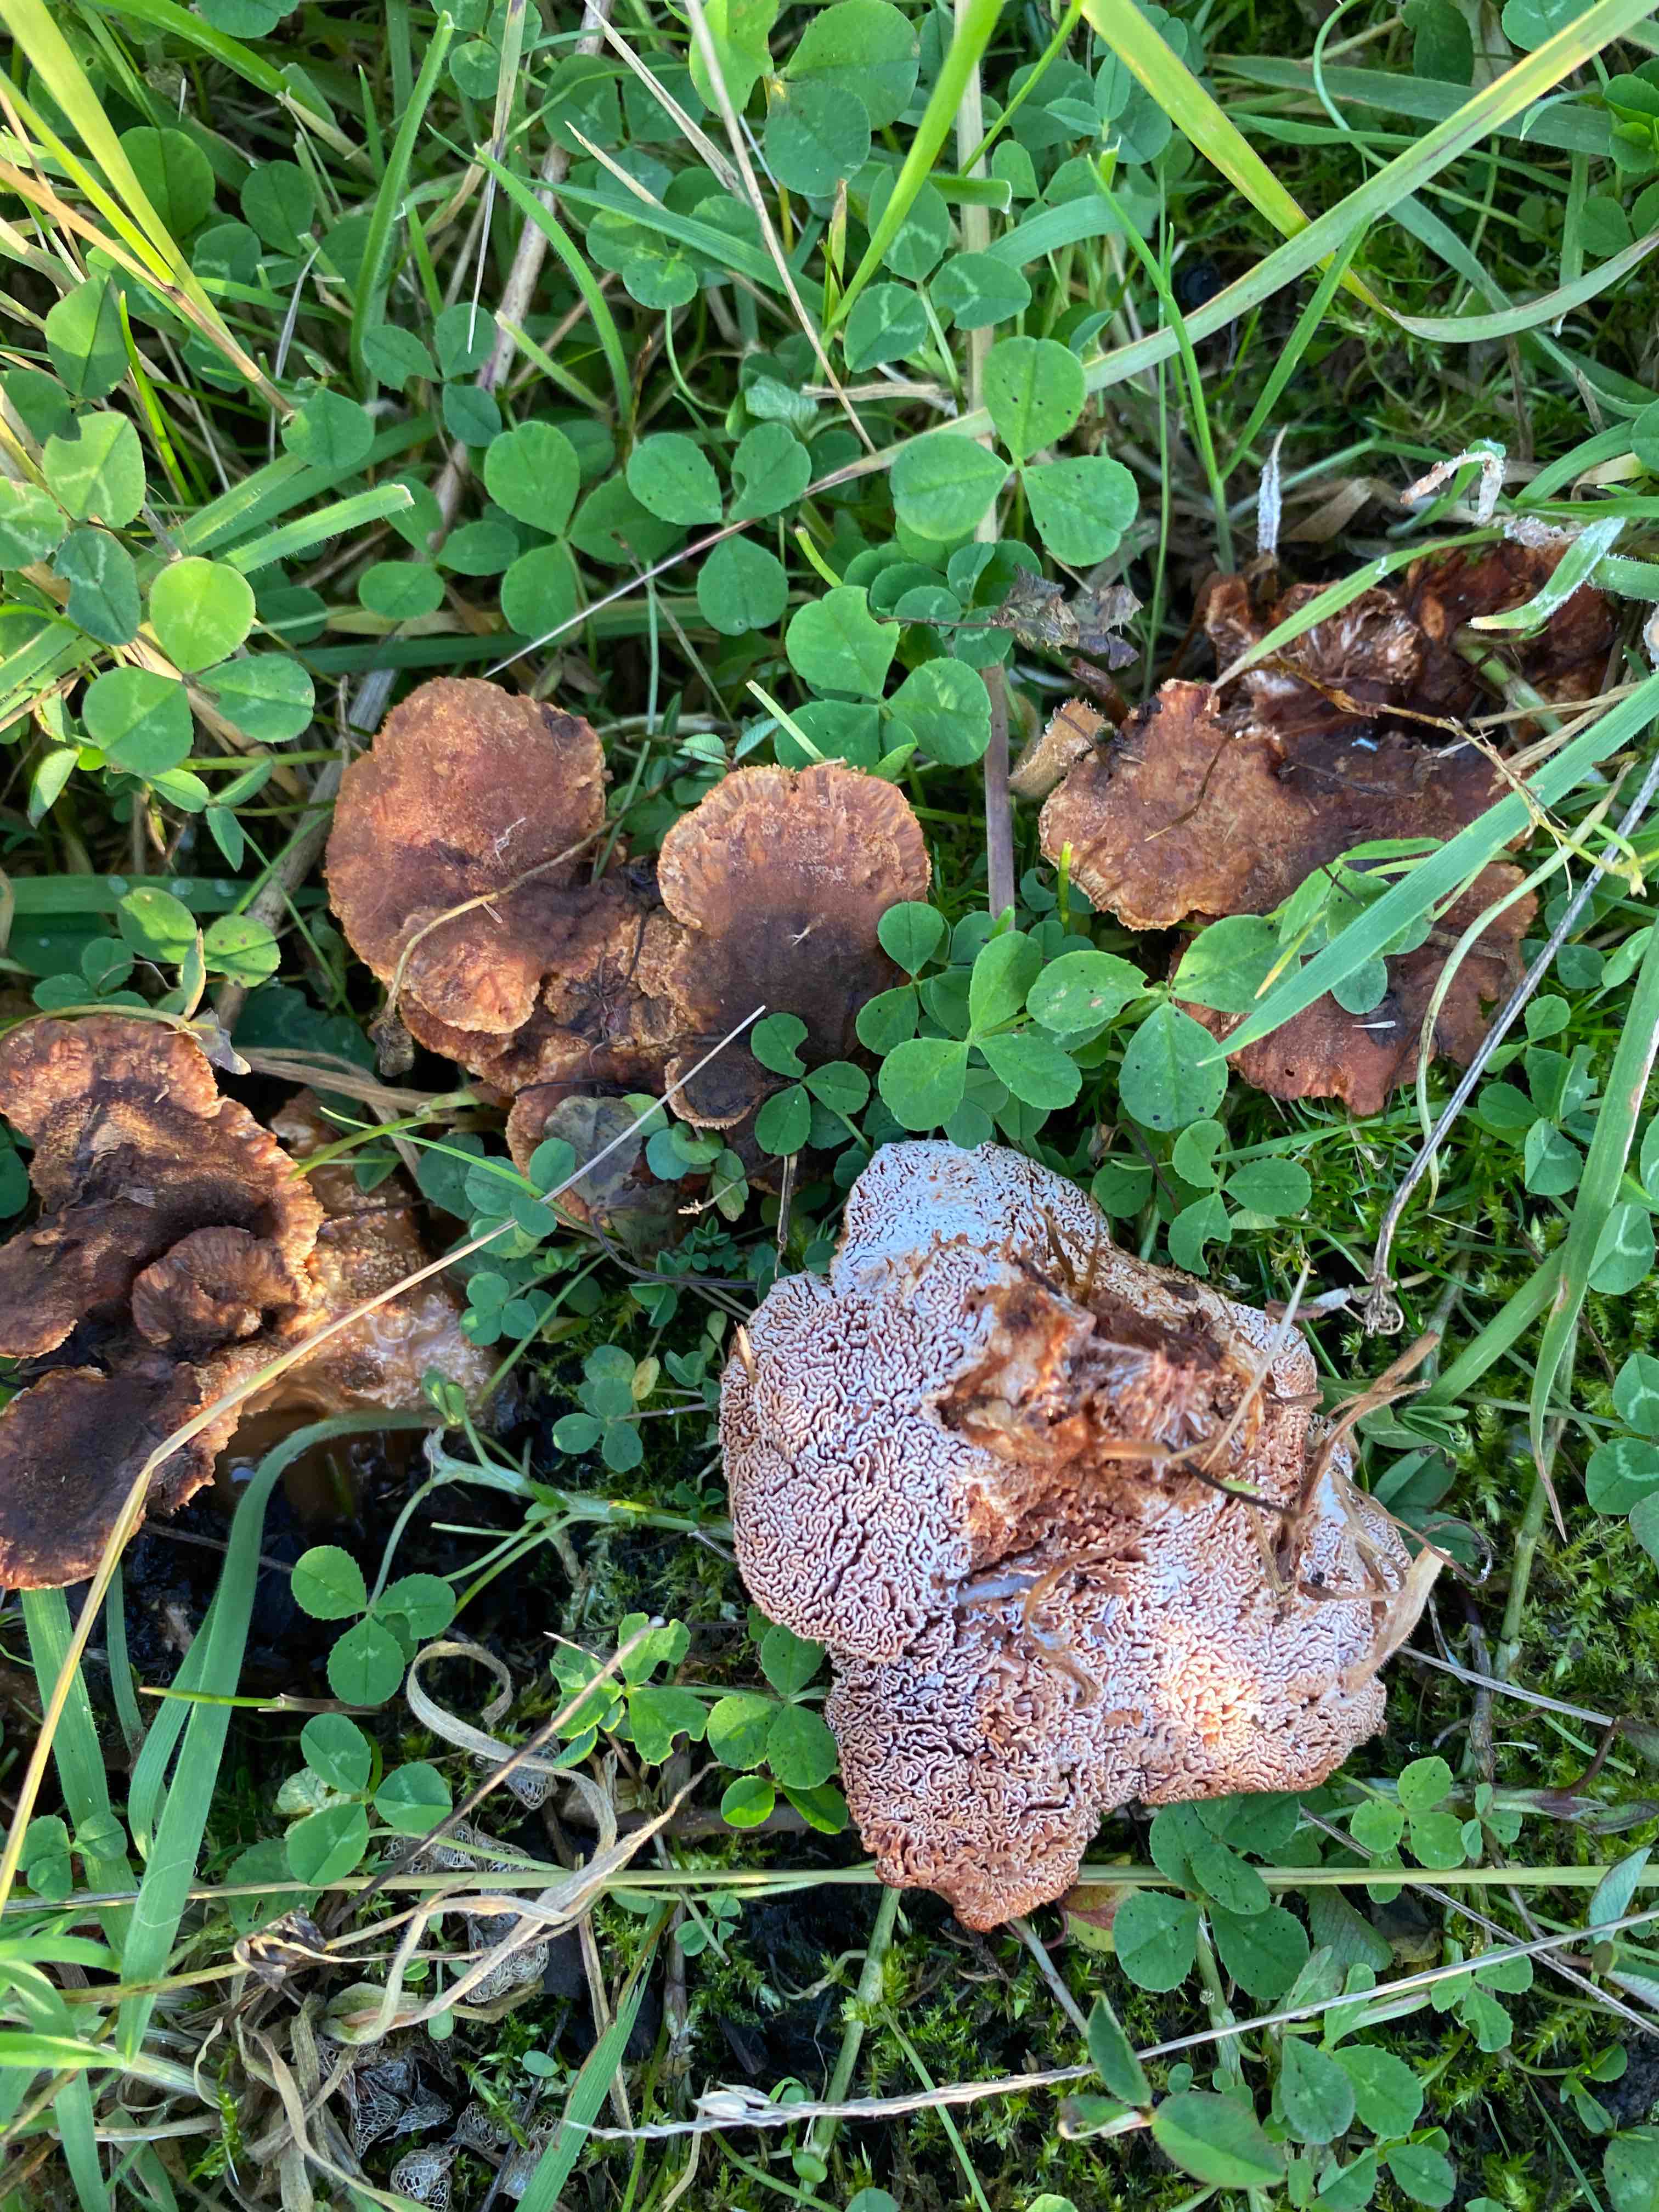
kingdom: Fungi
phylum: Basidiomycota
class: Agaricomycetes
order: Polyporales
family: Podoscyphaceae
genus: Abortiporus
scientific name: Abortiporus biennis
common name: rødmende pjalteporesvamp
